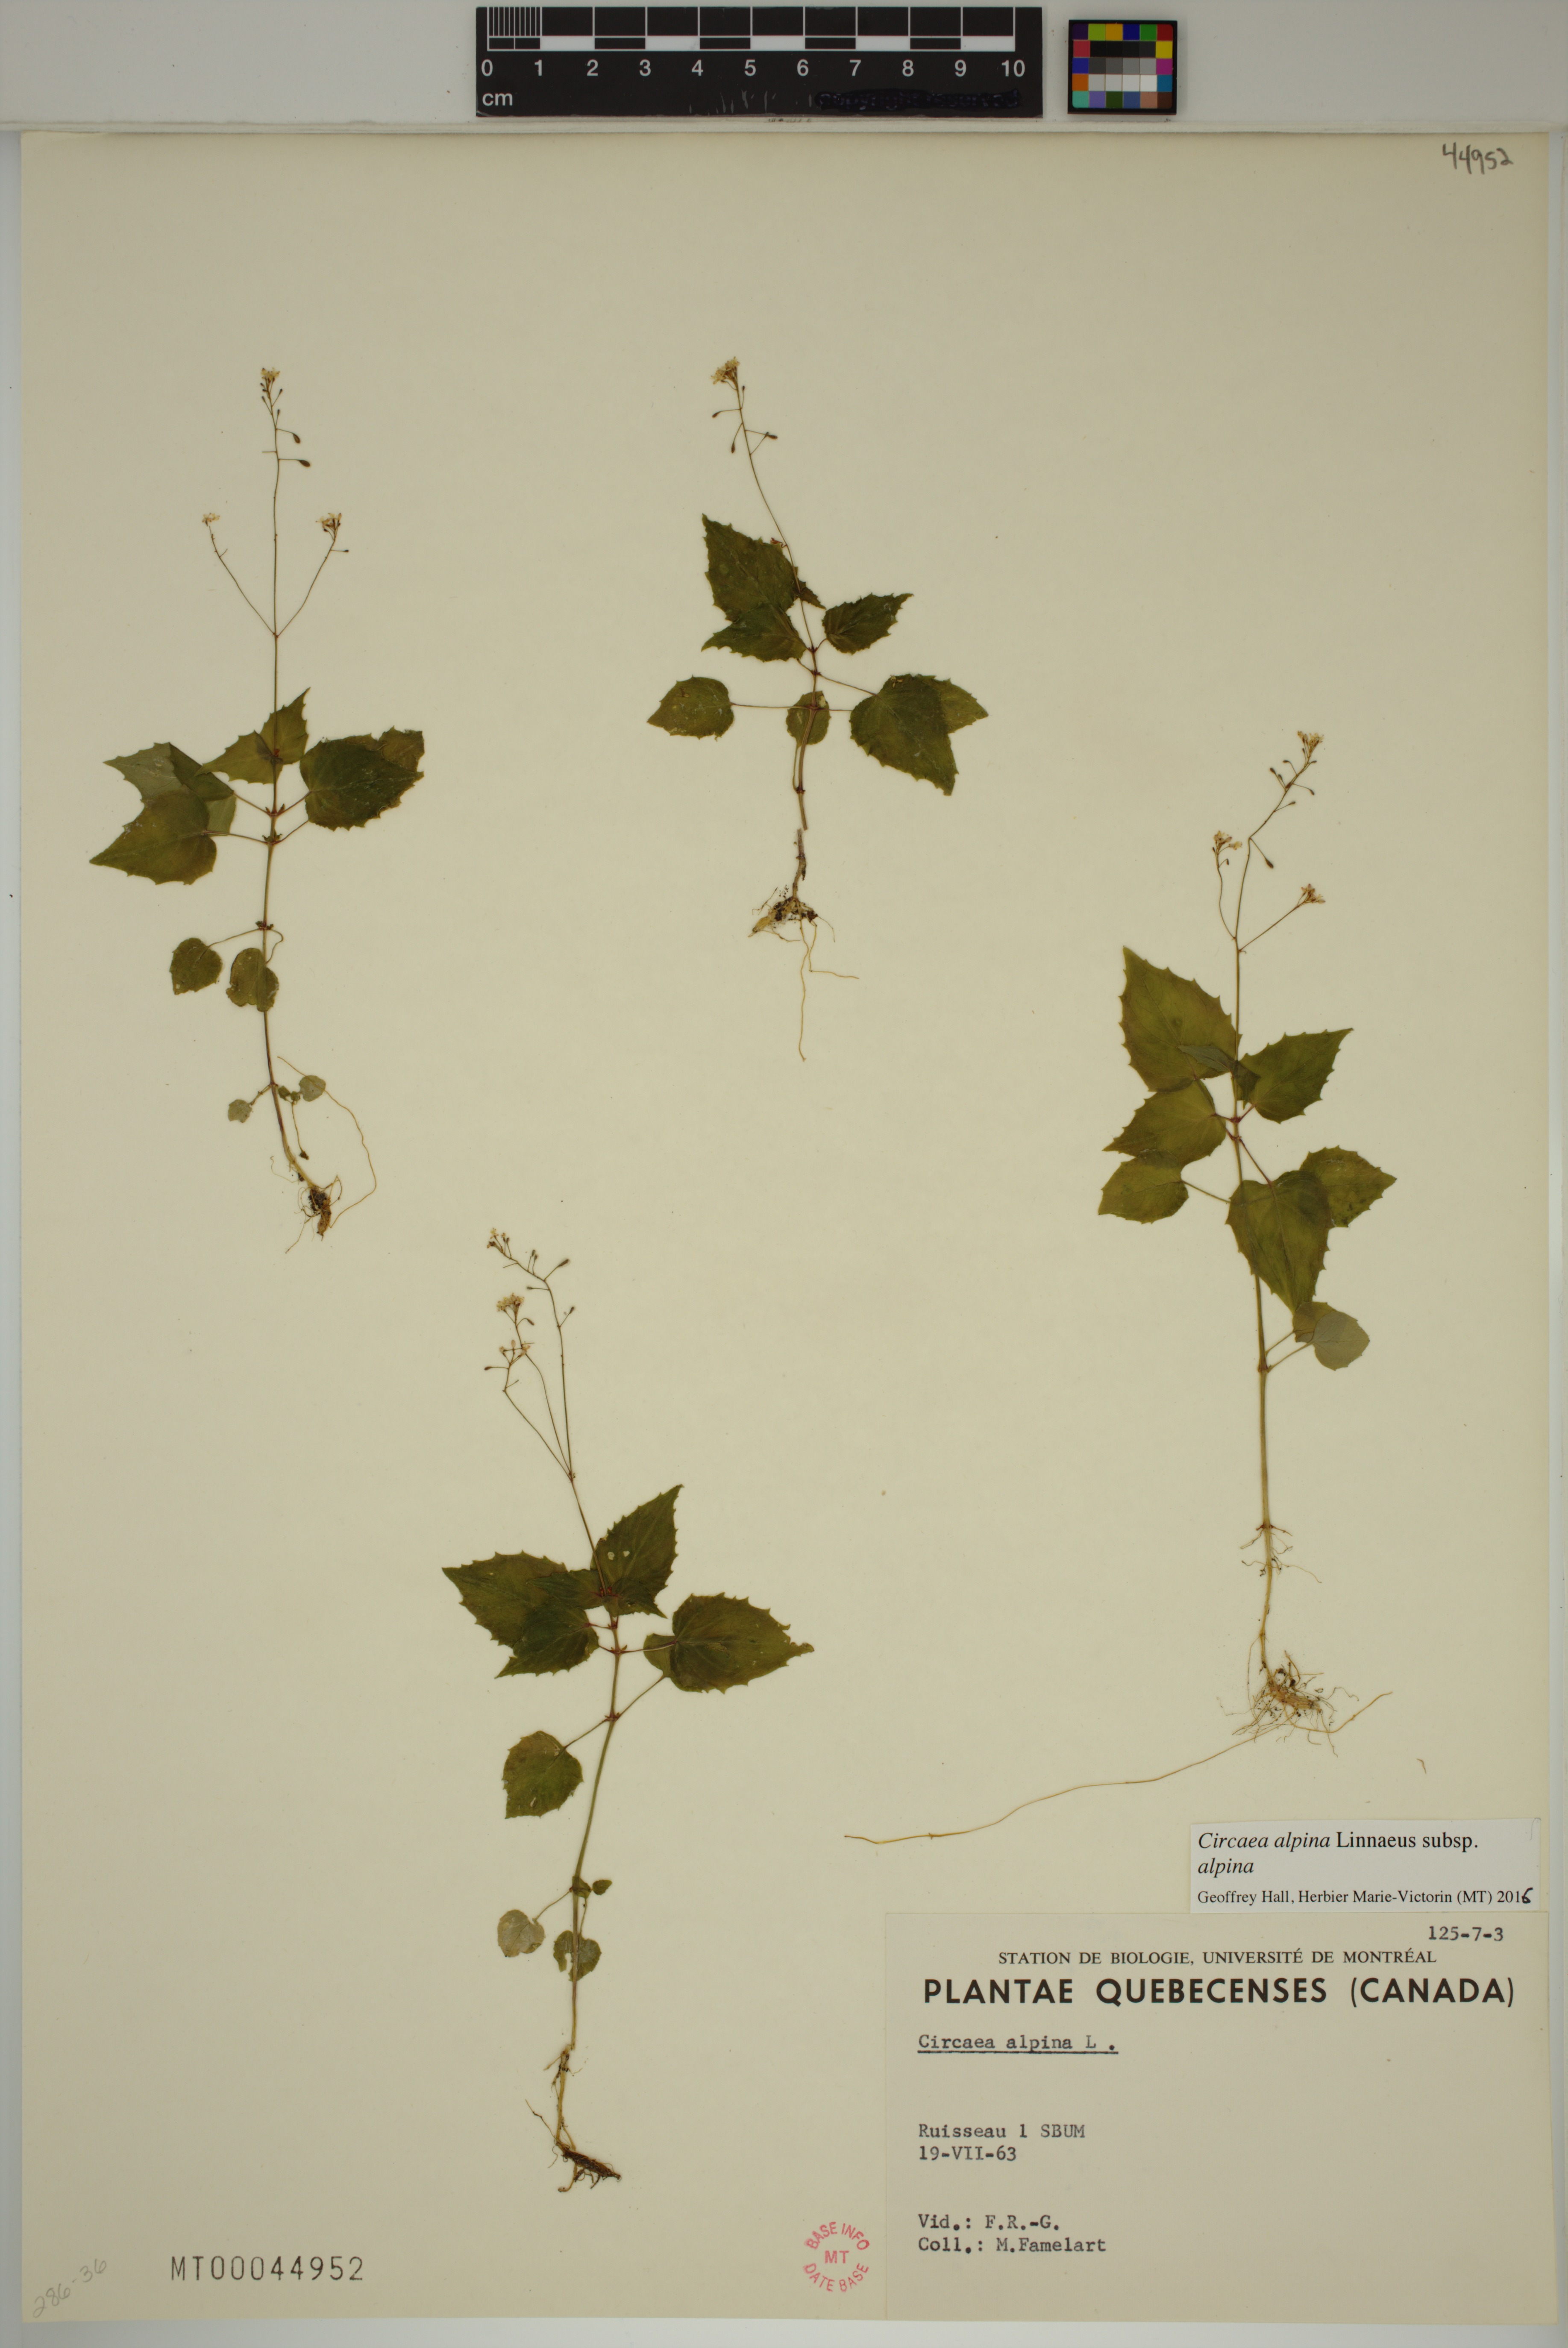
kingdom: Plantae
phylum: Tracheophyta
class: Magnoliopsida
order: Myrtales
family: Onagraceae
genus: Circaea
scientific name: Circaea alpina
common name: Alpine enchanter's-nightshade
